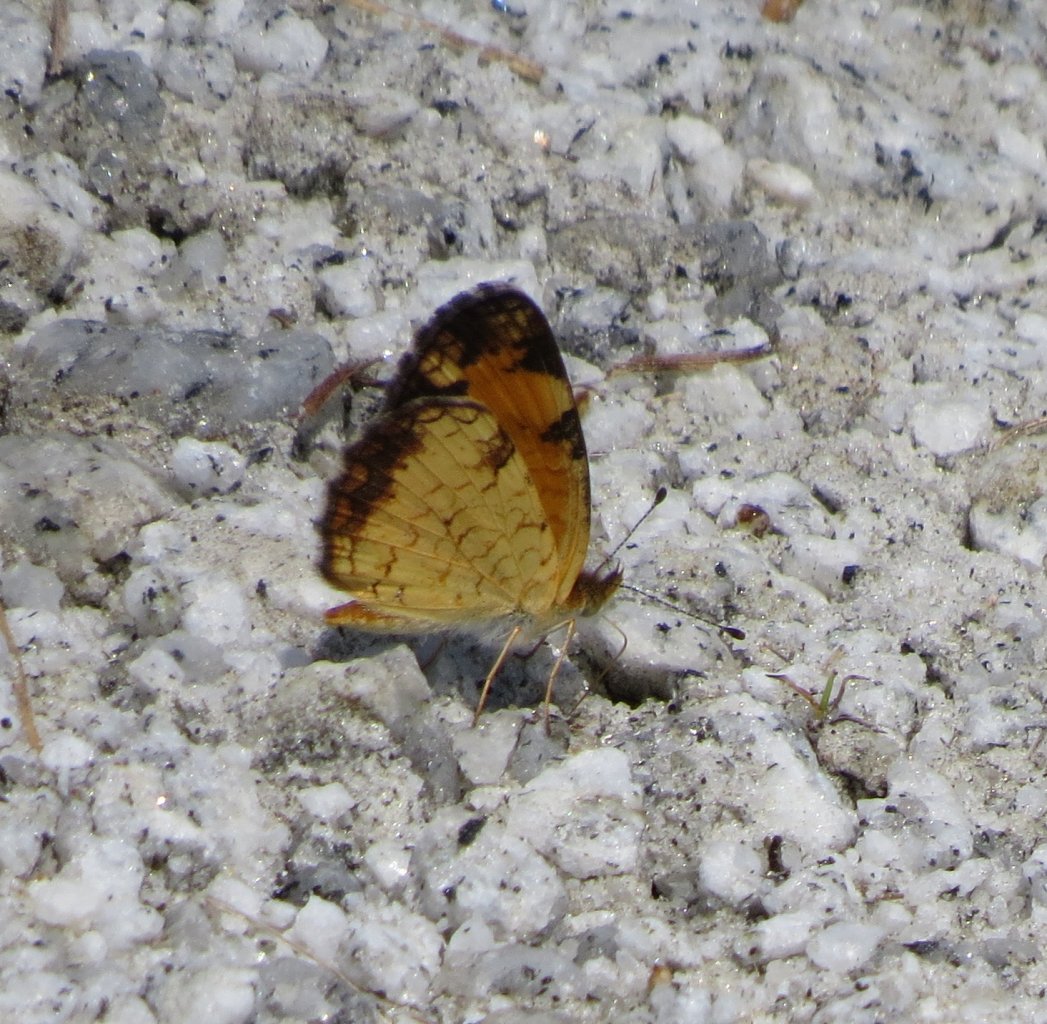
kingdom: Animalia
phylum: Arthropoda
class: Insecta
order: Lepidoptera
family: Nymphalidae
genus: Phyciodes
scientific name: Phyciodes tharos
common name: Pearl Crescent
